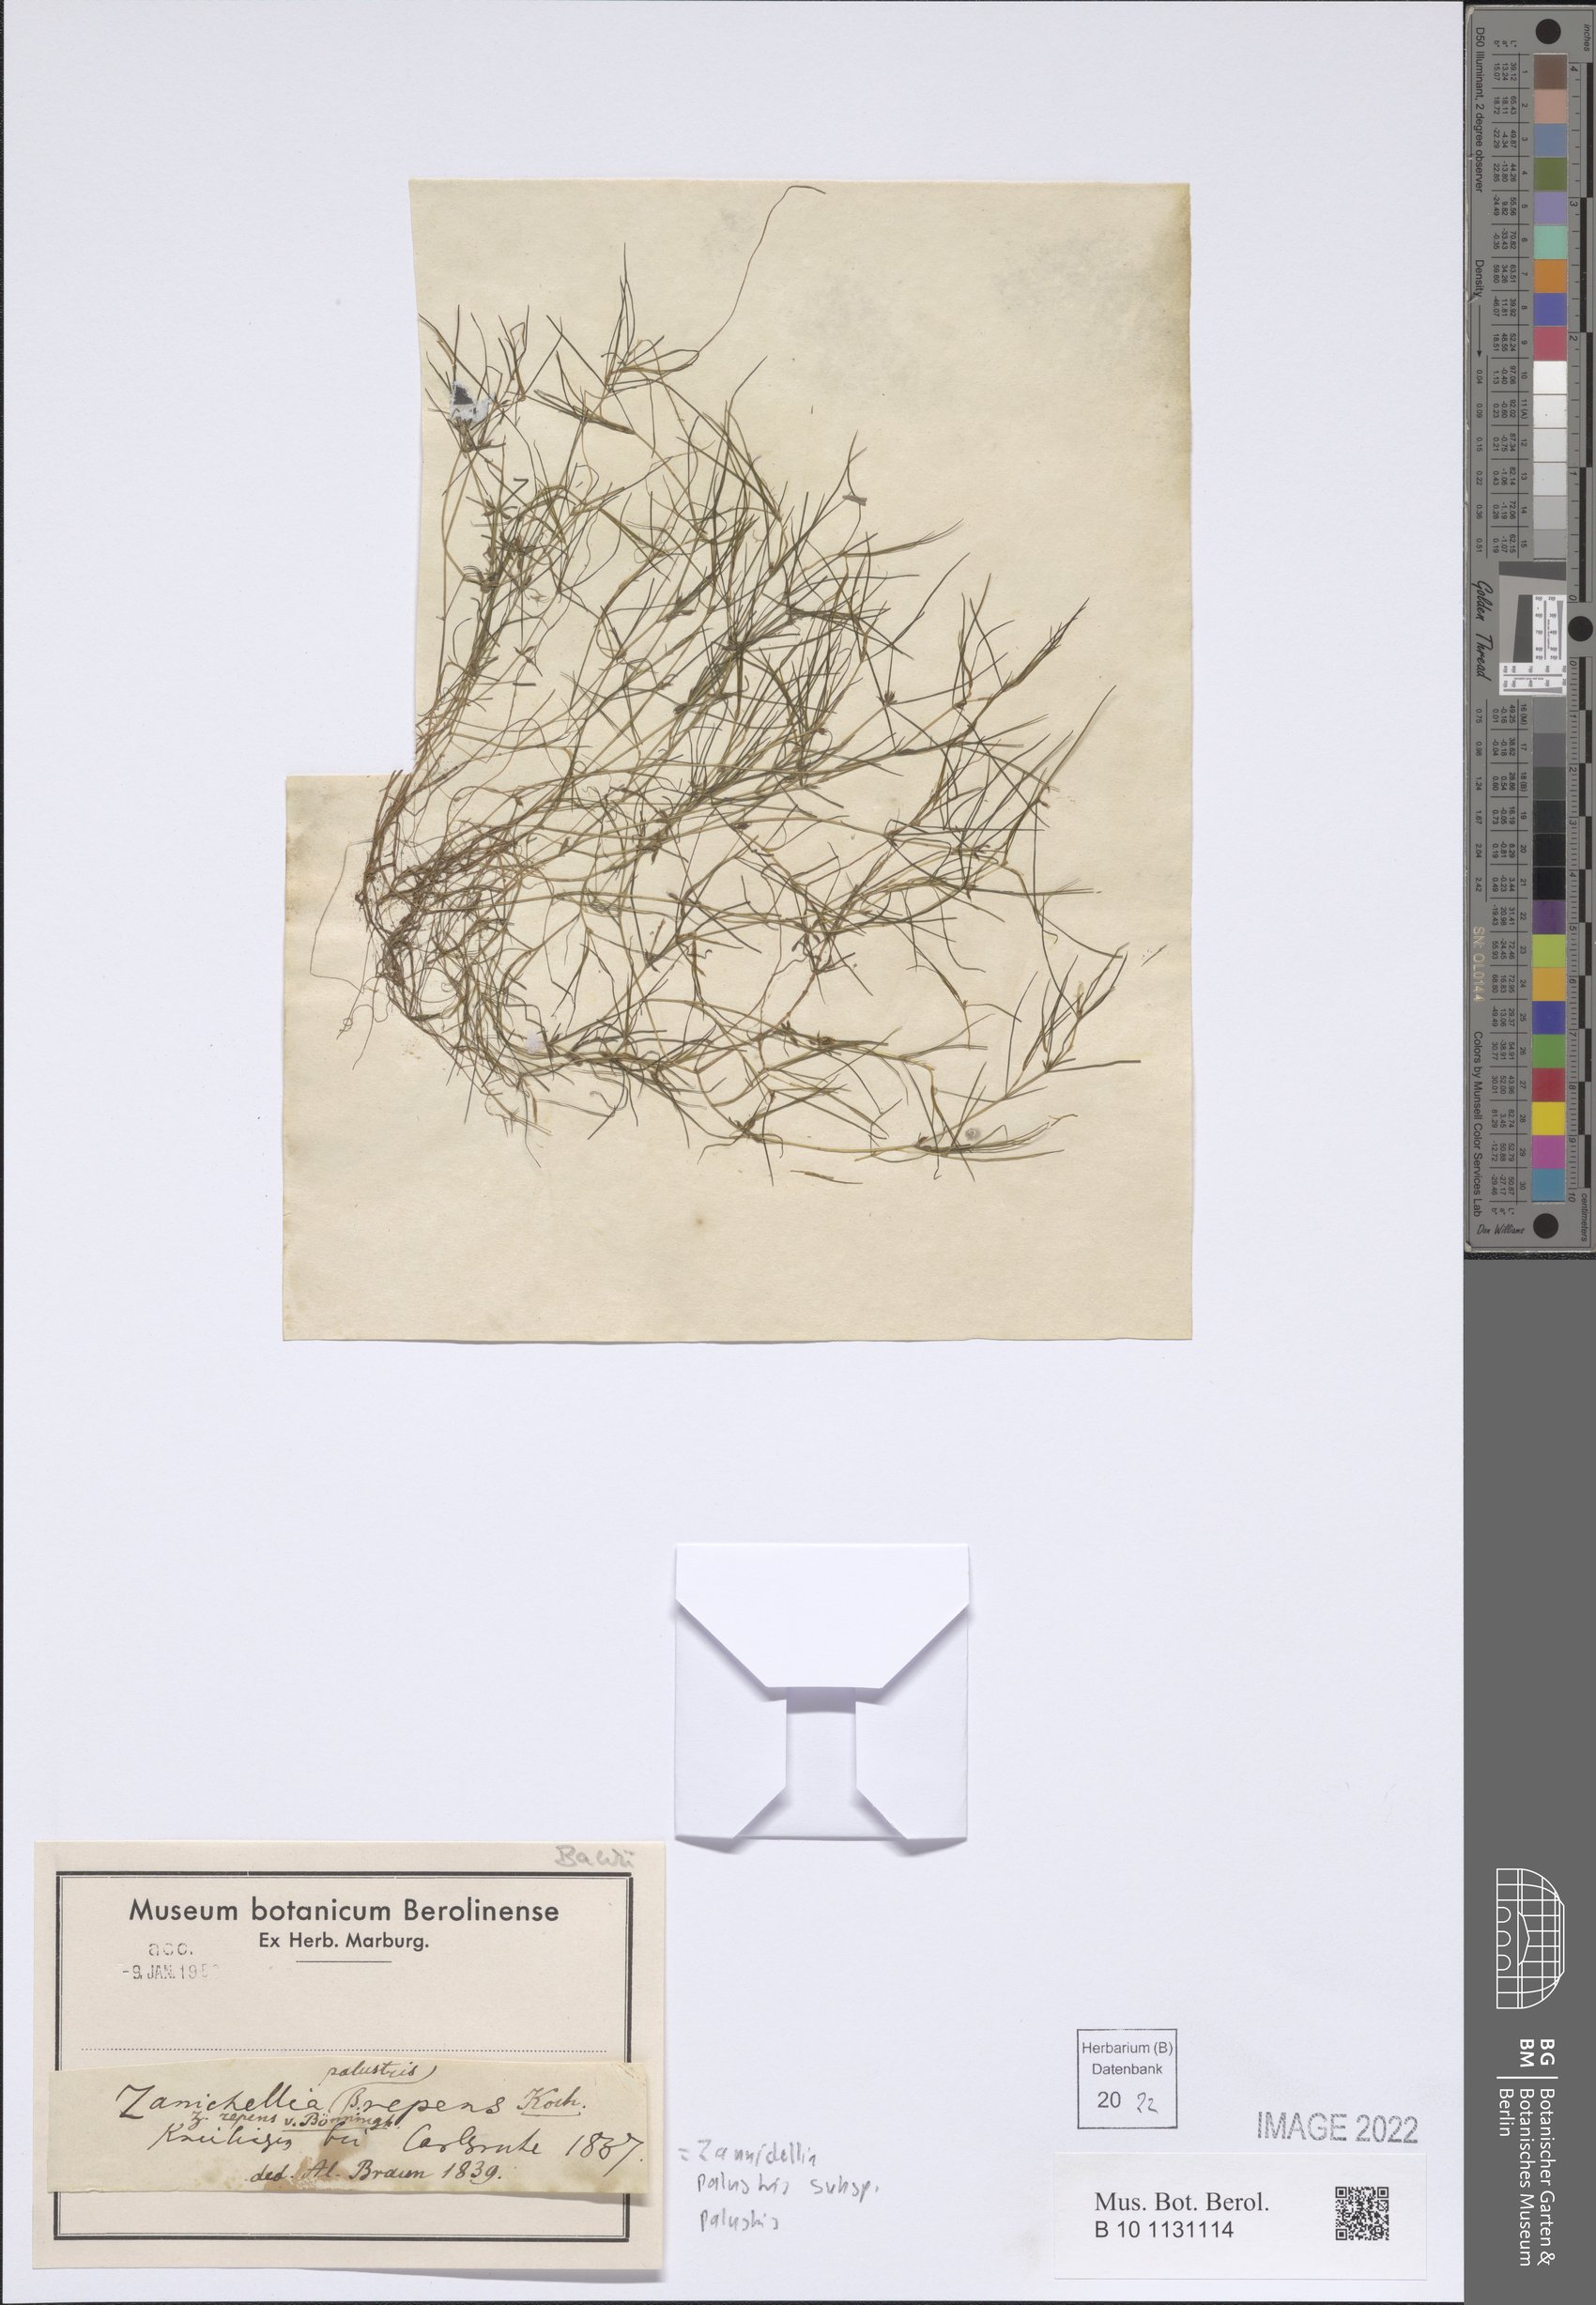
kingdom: Plantae
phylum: Tracheophyta
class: Liliopsida
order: Alismatales
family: Potamogetonaceae
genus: Zannichellia
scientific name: Zannichellia palustris
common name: Horned pondweed
